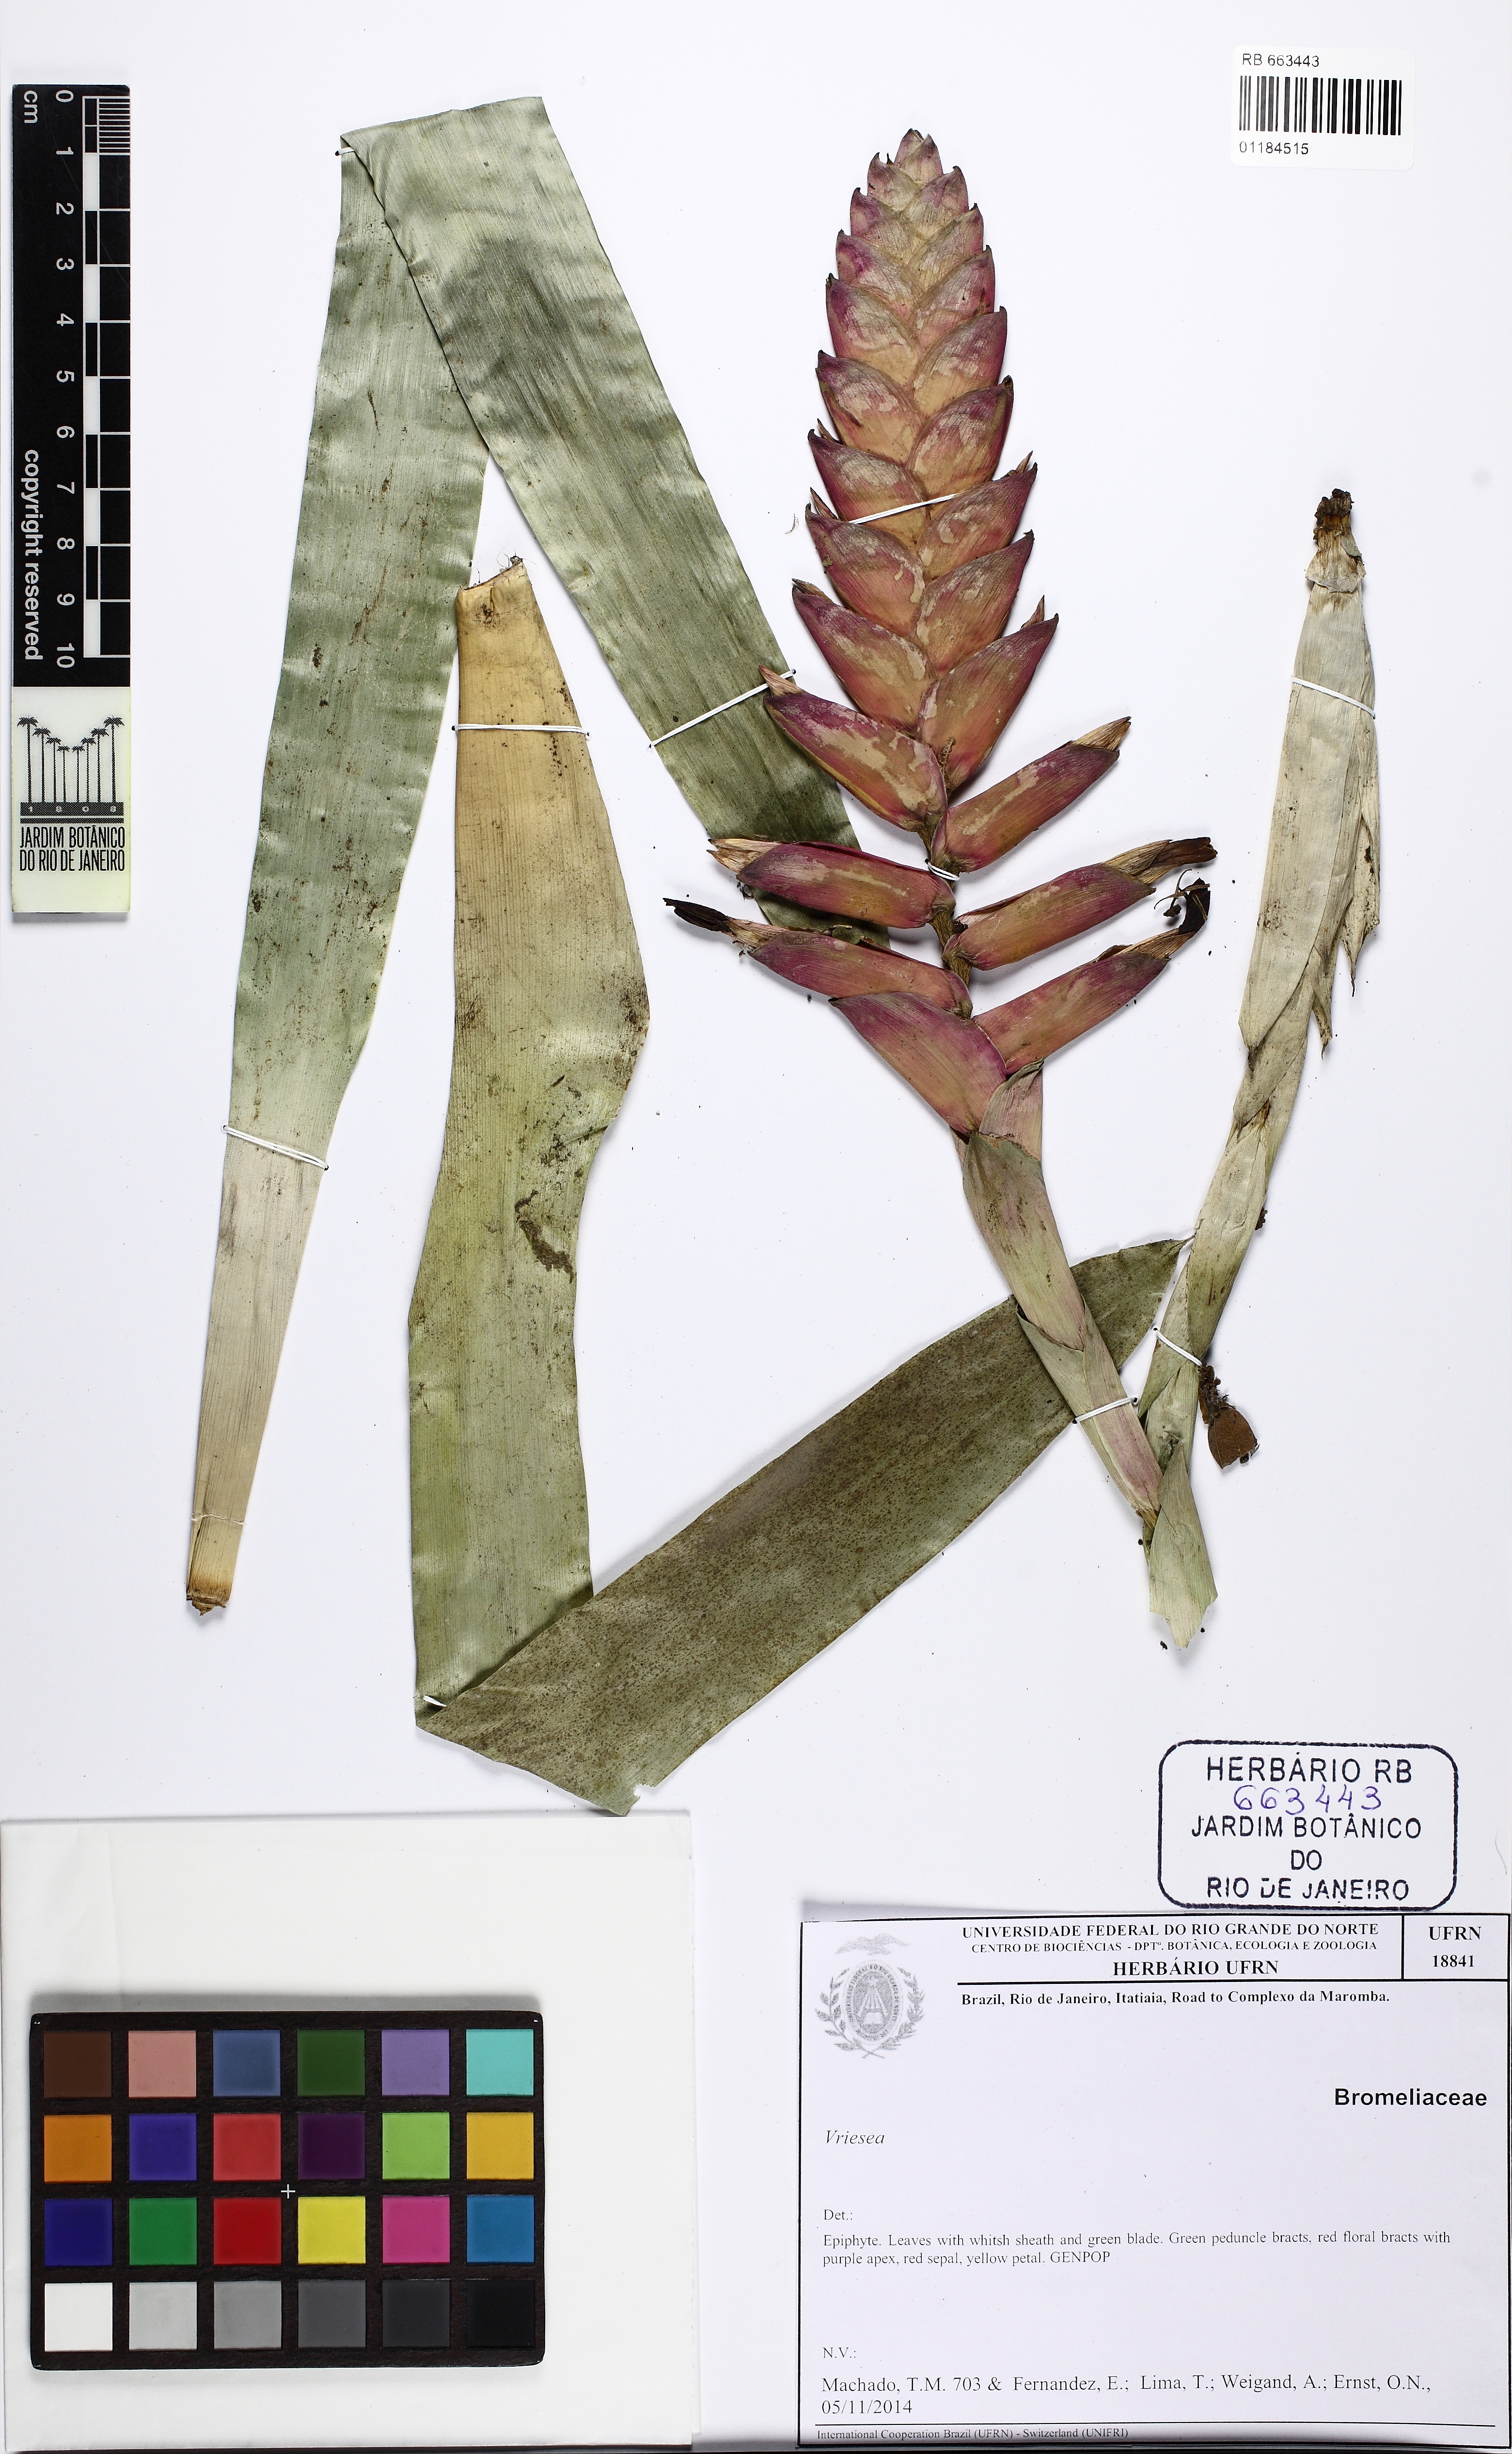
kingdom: Plantae
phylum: Tracheophyta
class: Liliopsida
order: Poales
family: Bromeliaceae
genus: Vriesea
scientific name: Vriesea gradata
